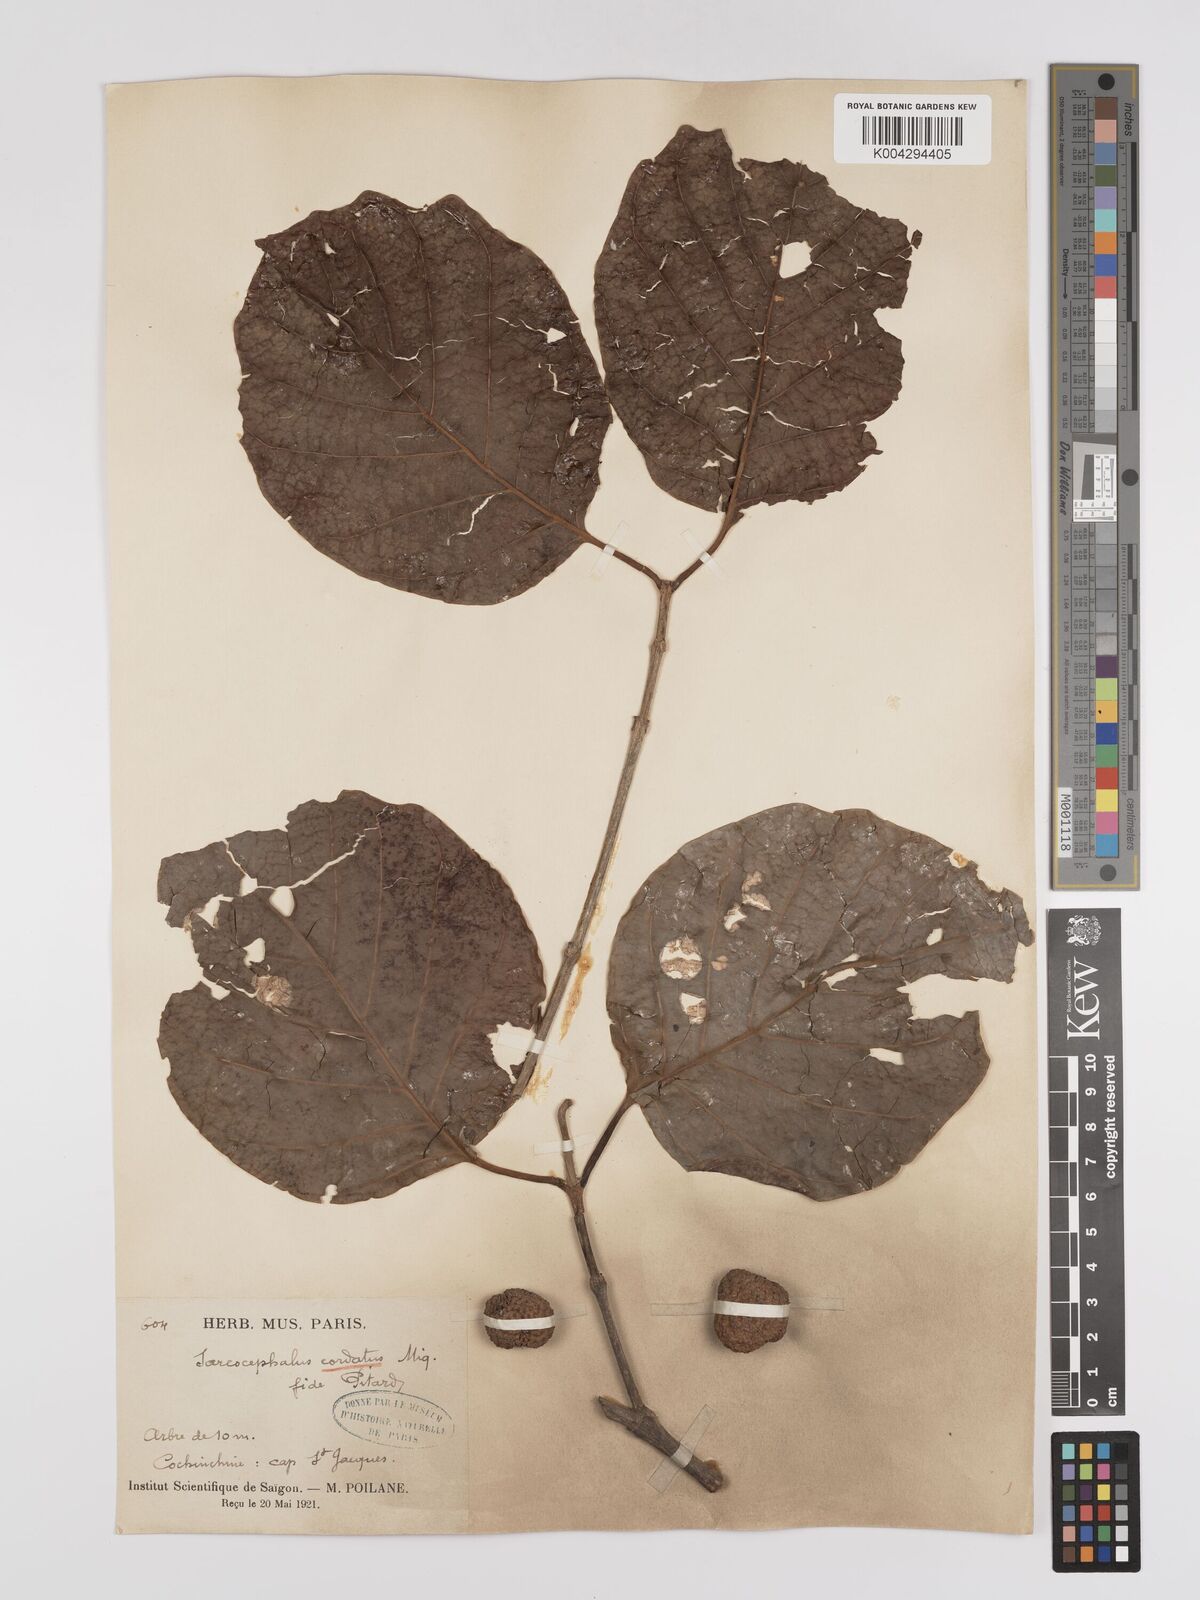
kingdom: Plantae
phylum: Tracheophyta
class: Magnoliopsida
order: Gentianales
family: Rubiaceae
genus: Nauclea
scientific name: Nauclea orientalis
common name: Leichhardt-pine
